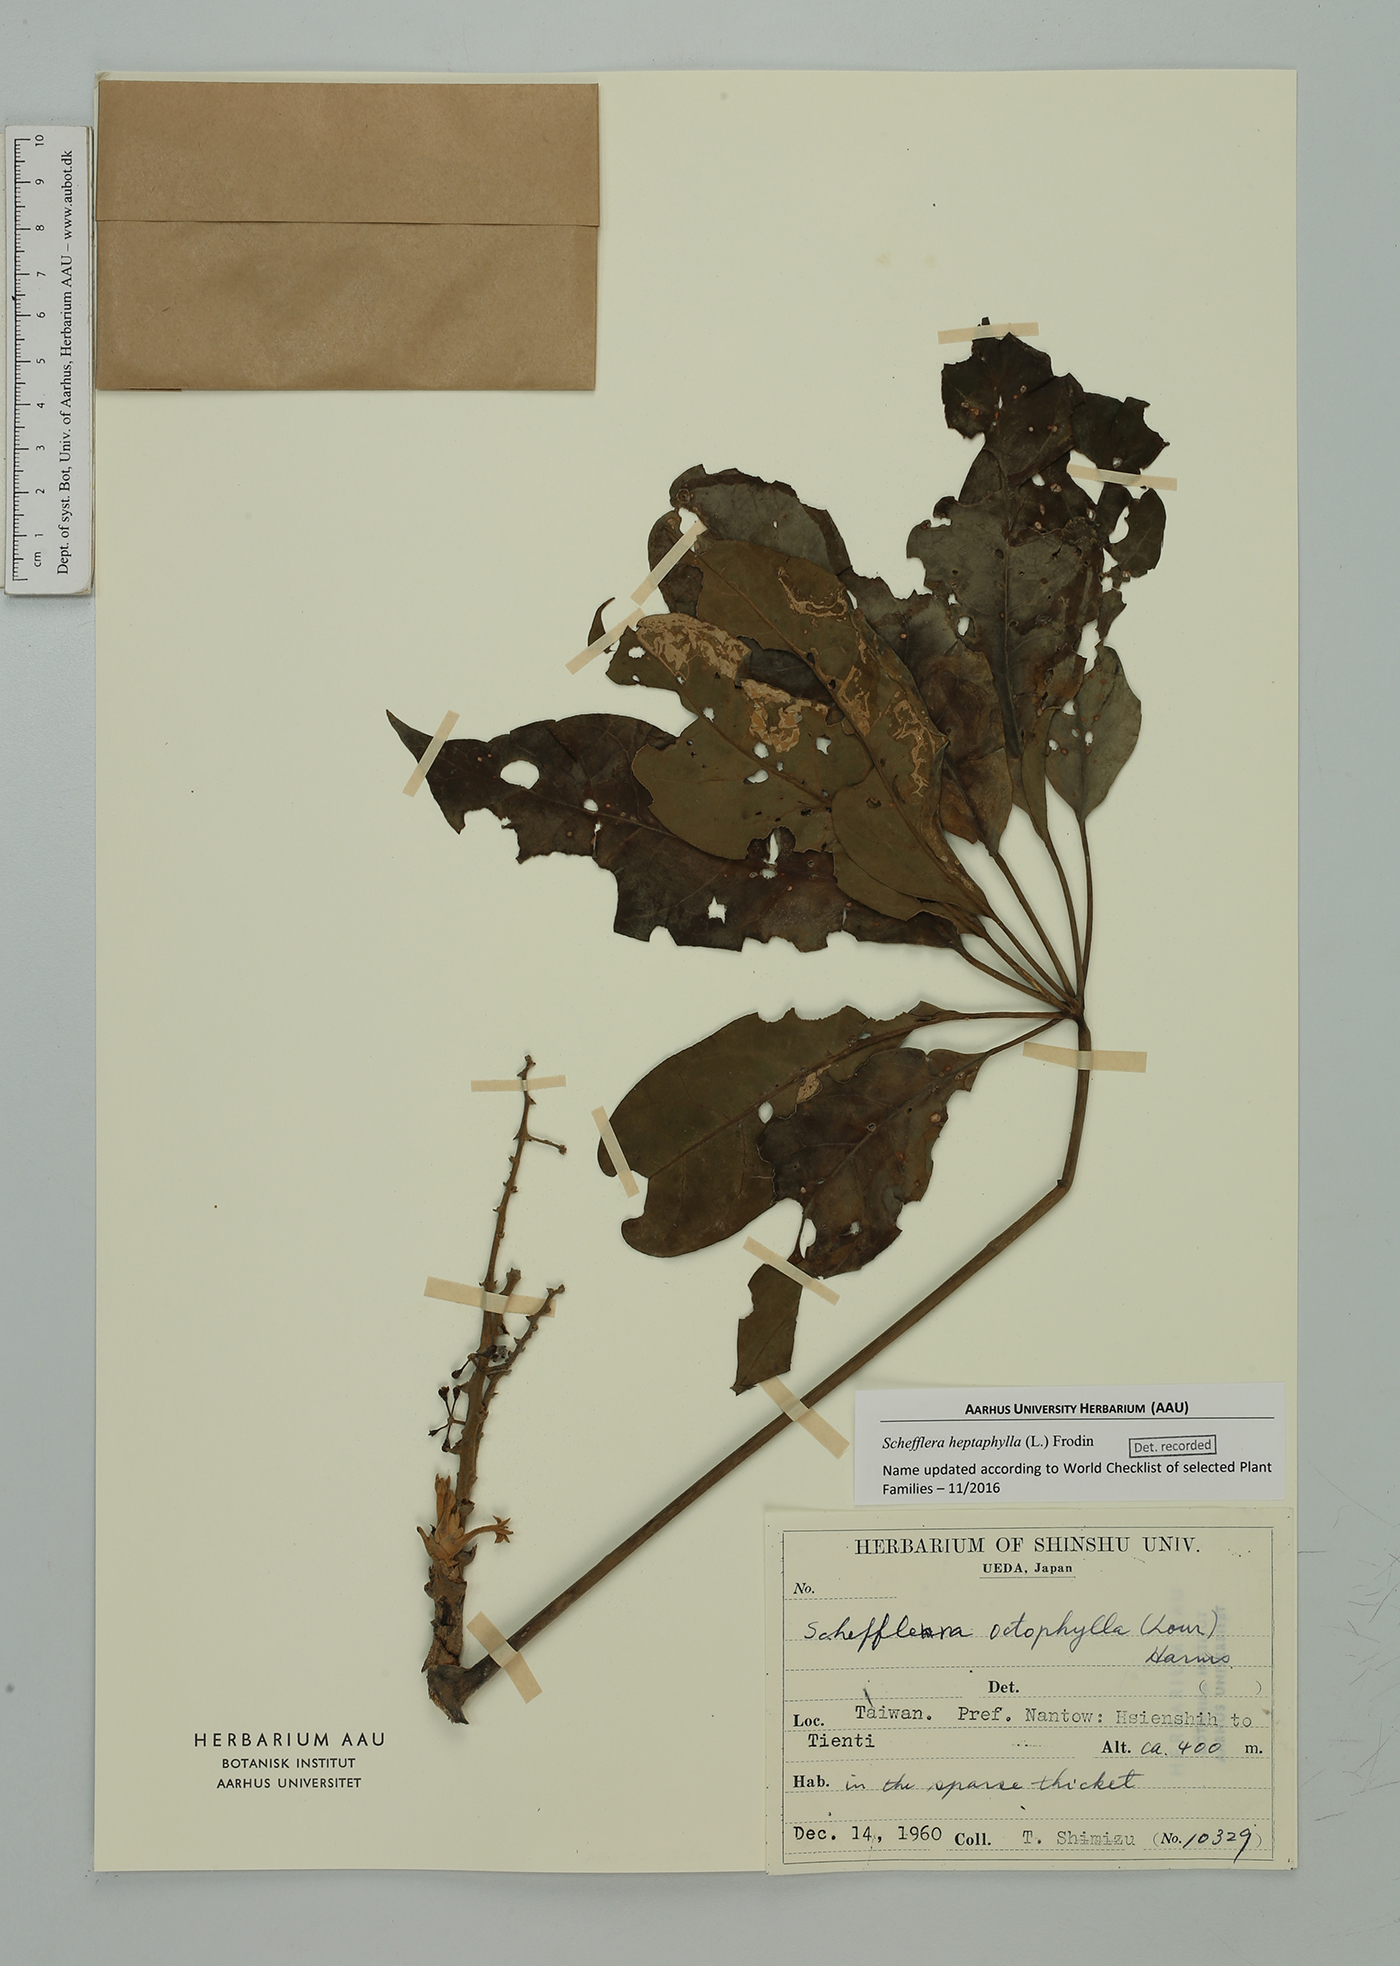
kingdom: Plantae
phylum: Tracheophyta
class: Magnoliopsida
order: Apiales
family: Araliaceae
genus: Heptapleurum
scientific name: Heptapleurum heptaphyllum
